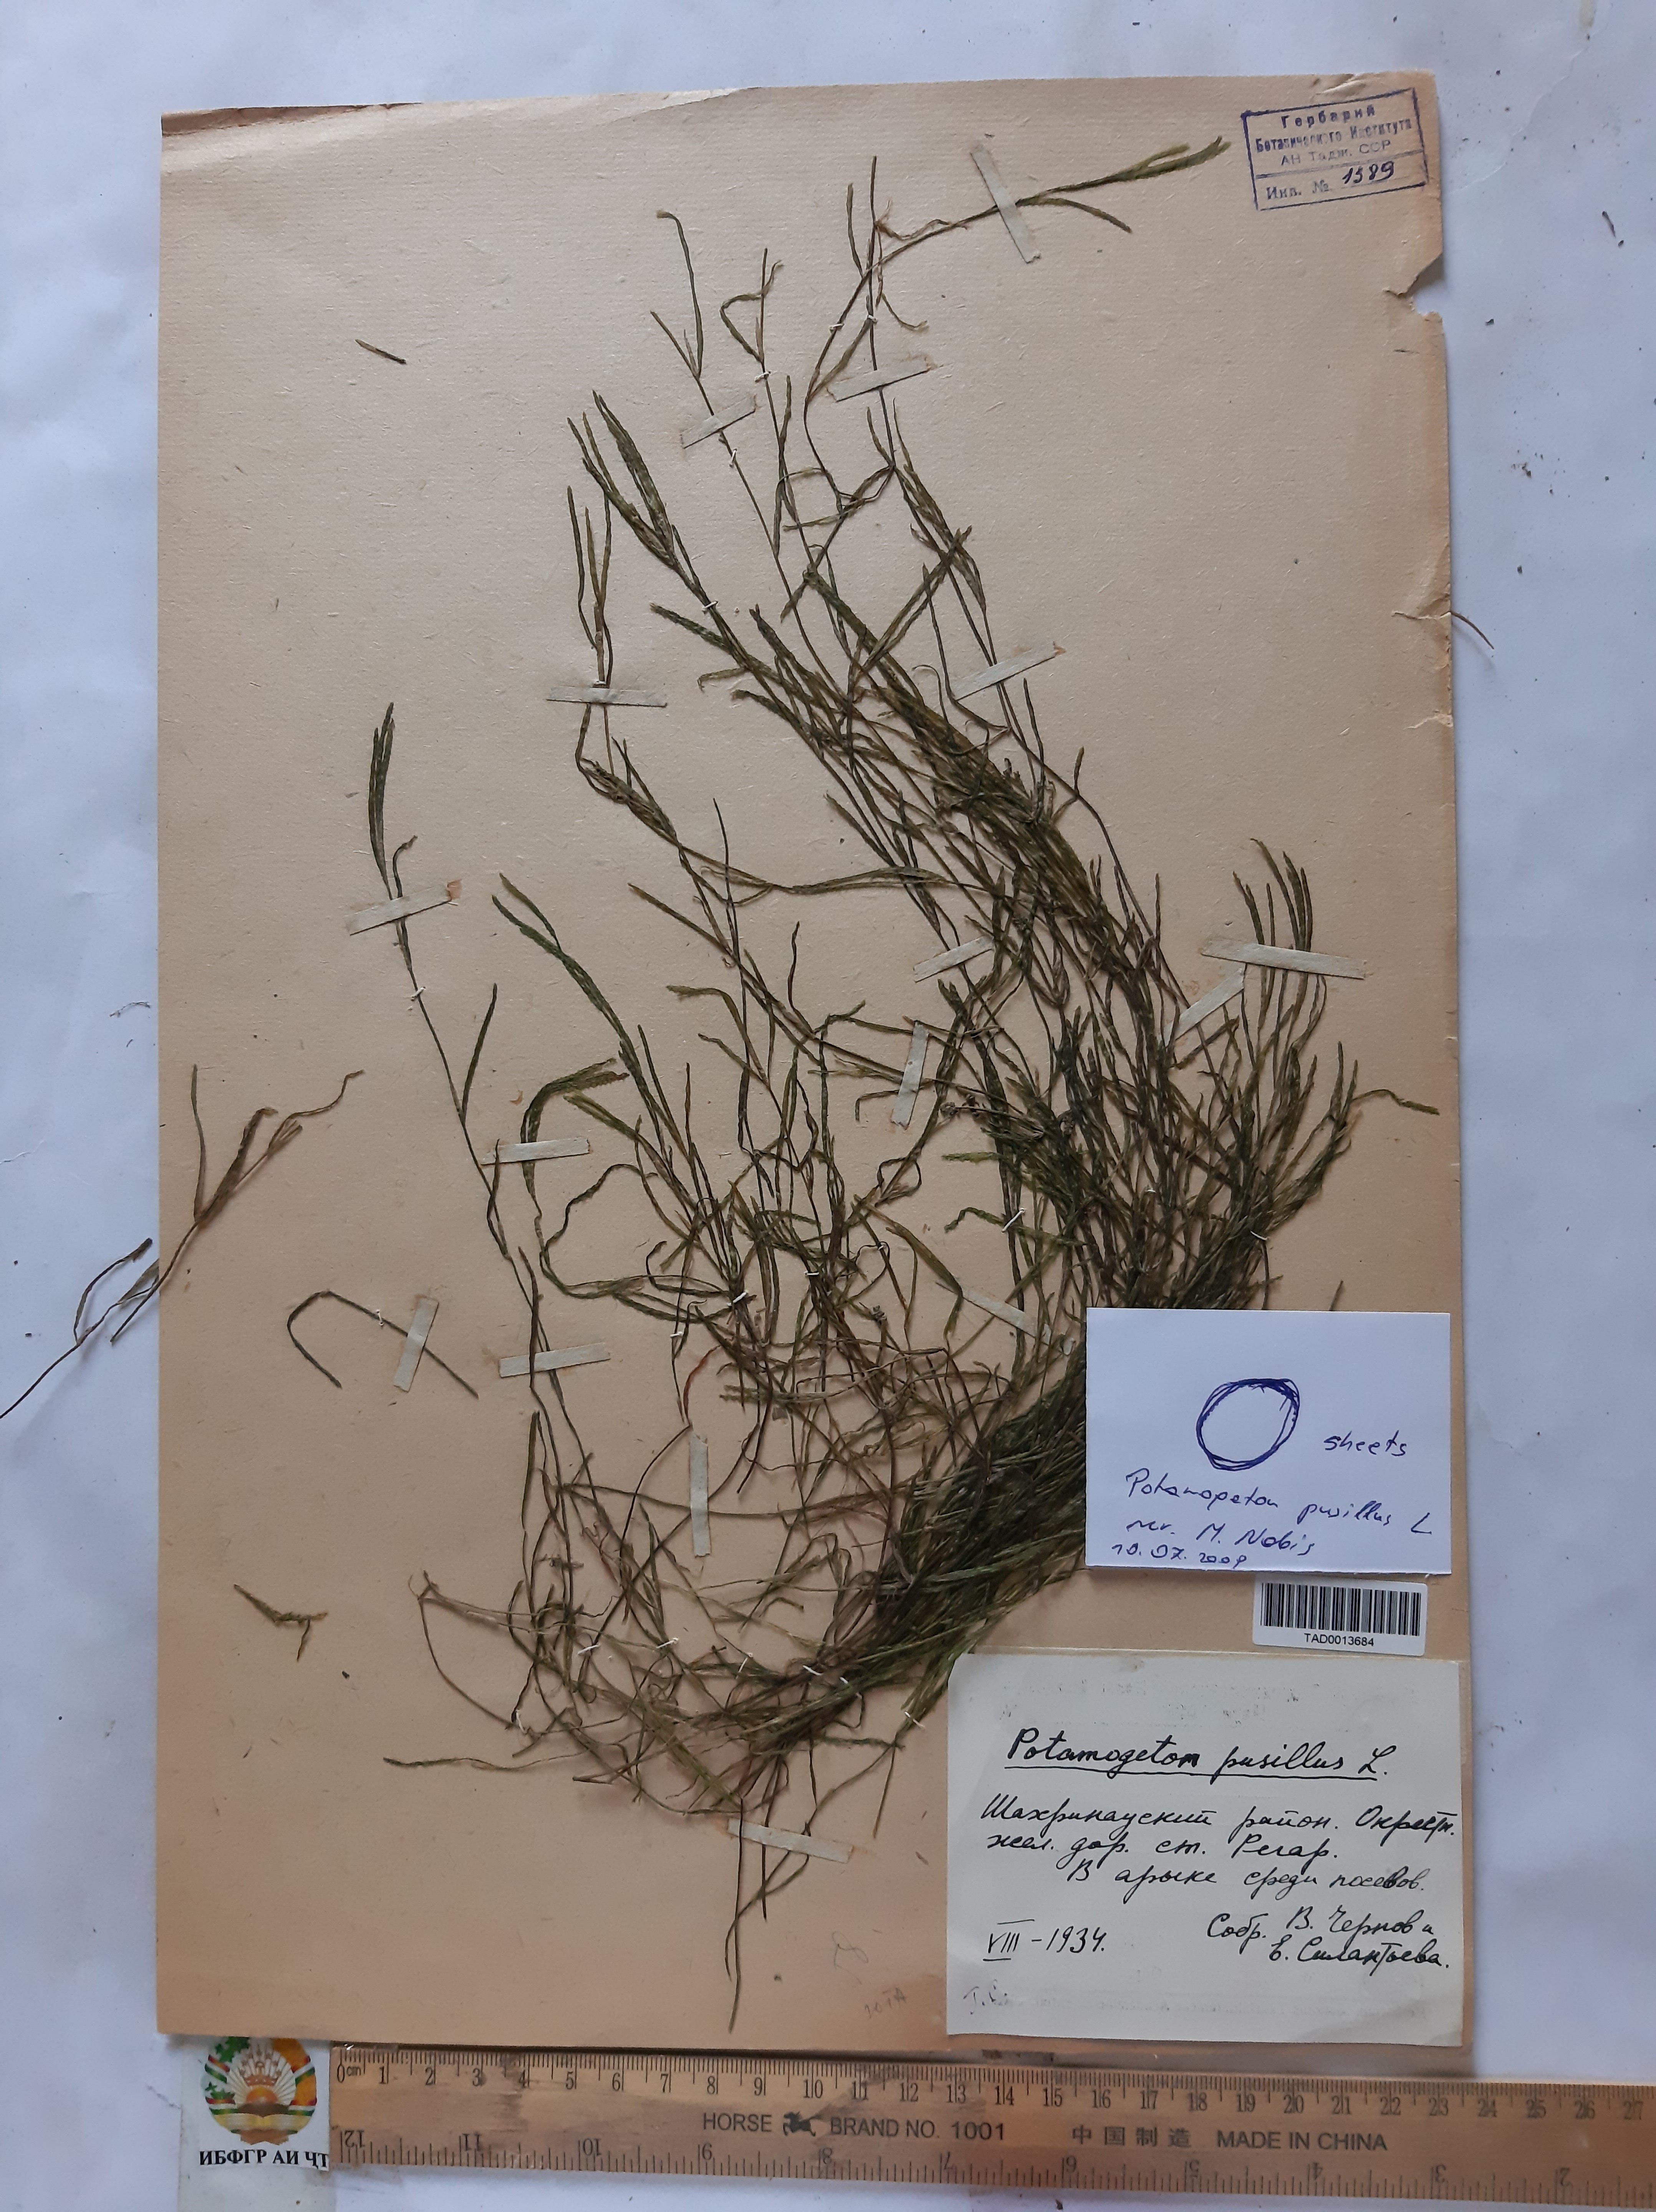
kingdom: Plantae
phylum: Tracheophyta
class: Liliopsida
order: Alismatales
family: Potamogetonaceae
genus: Potamogeton
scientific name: Potamogeton pusillus
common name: Lesser pondweed
